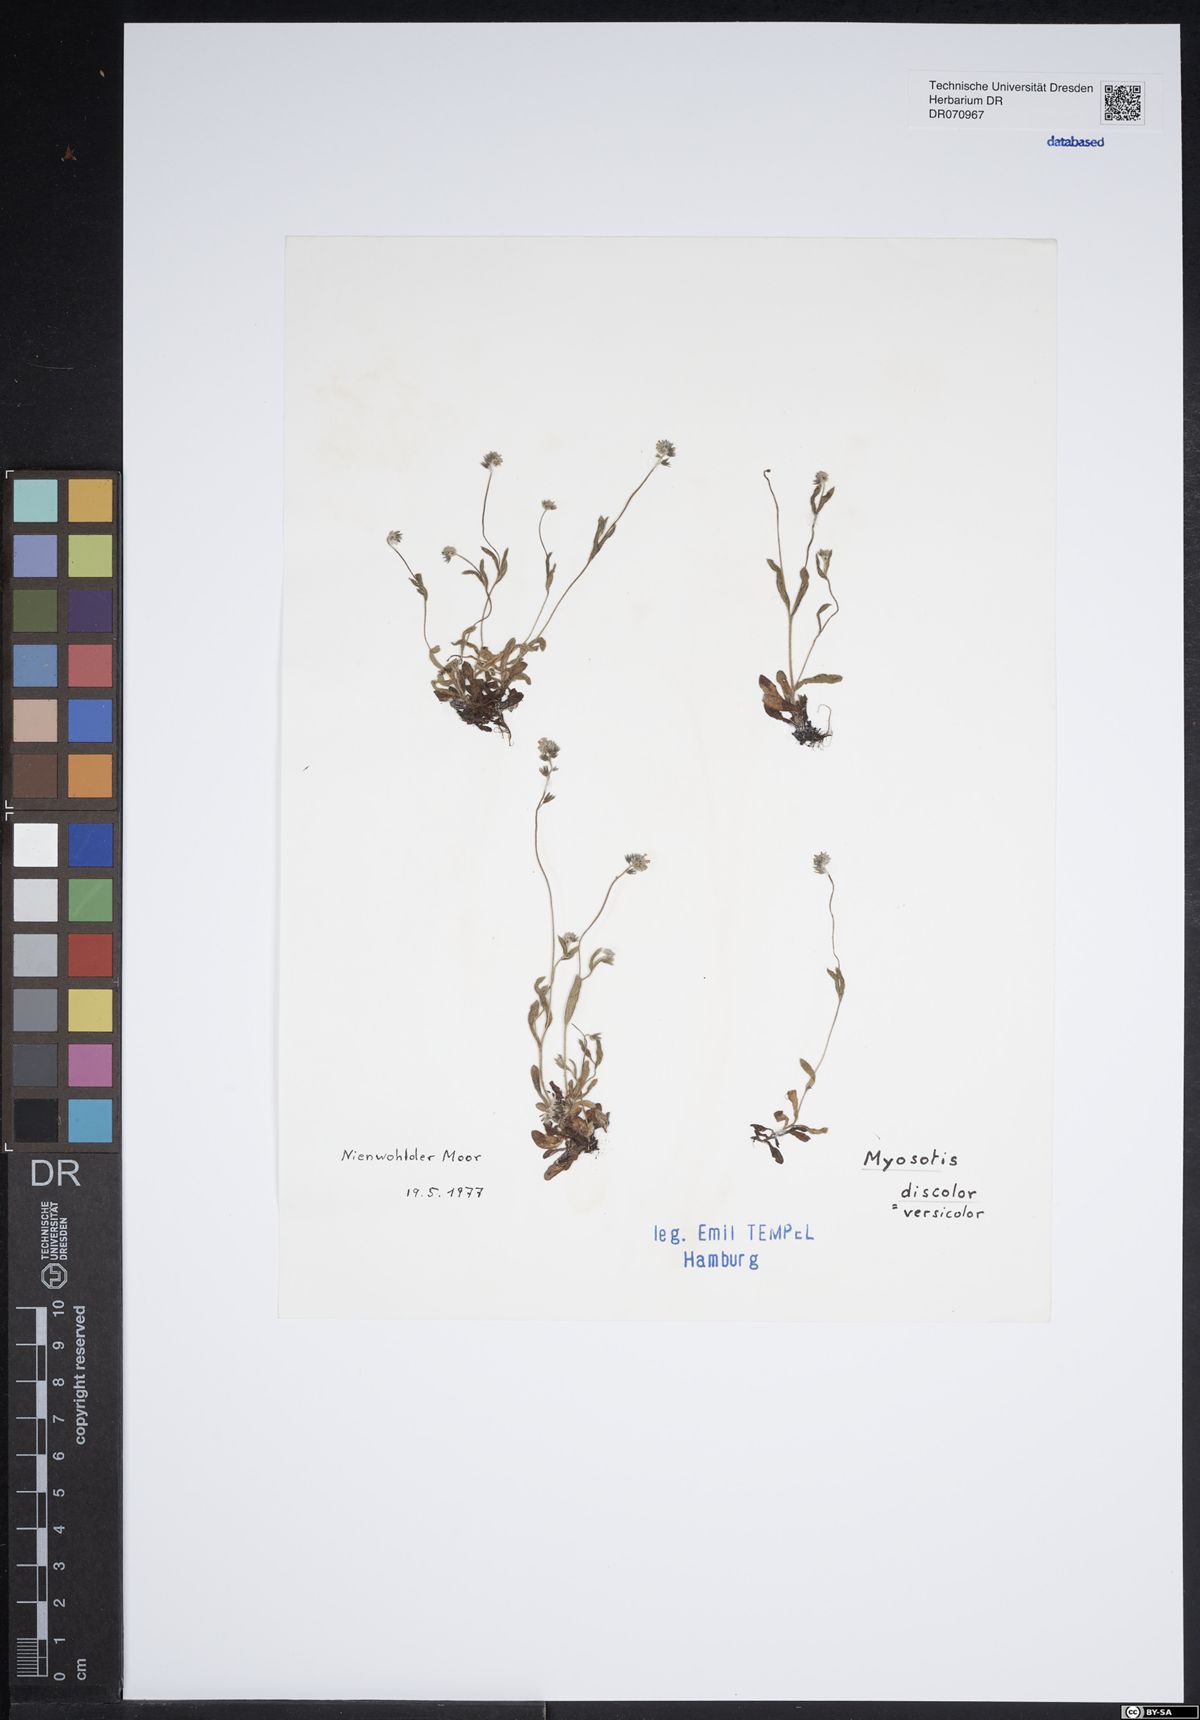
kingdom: Plantae
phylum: Tracheophyta
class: Magnoliopsida
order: Boraginales
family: Boraginaceae
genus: Myosotis
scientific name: Myosotis discolor
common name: Changing forget-me-not
